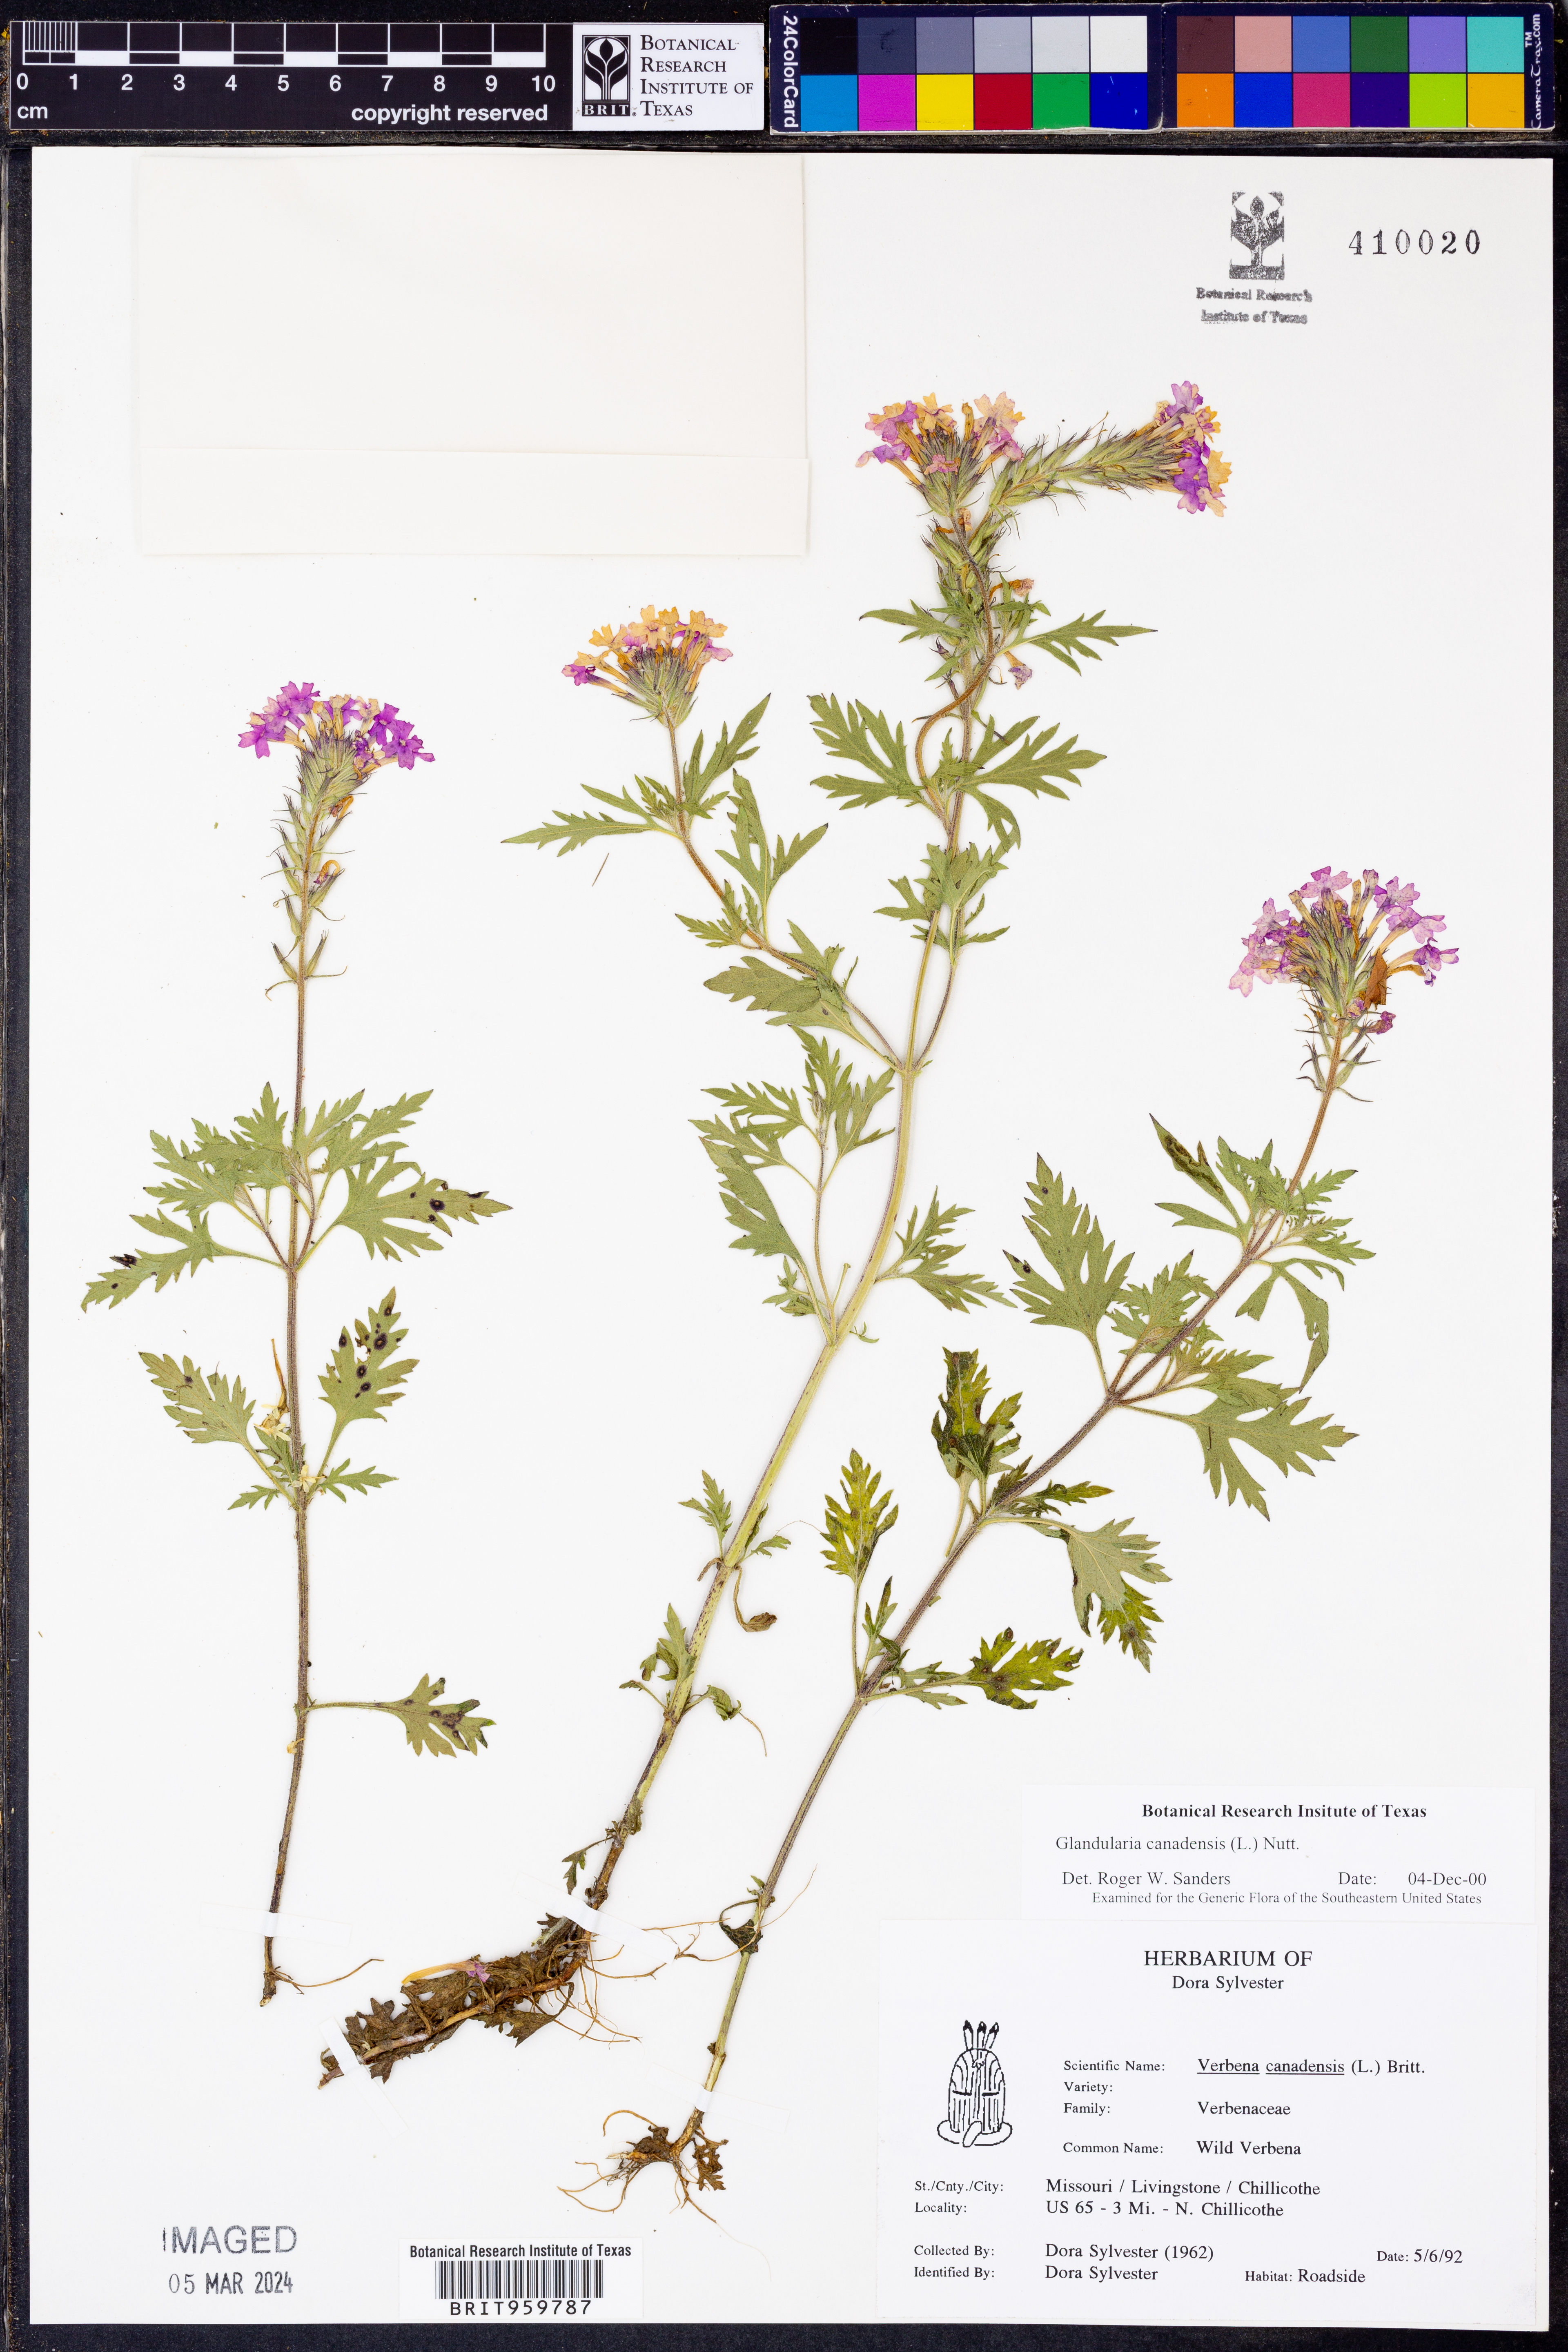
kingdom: Plantae
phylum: Tracheophyta
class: Magnoliopsida
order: Lamiales
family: Verbenaceae
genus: Verbena
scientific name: Verbena canadensis
